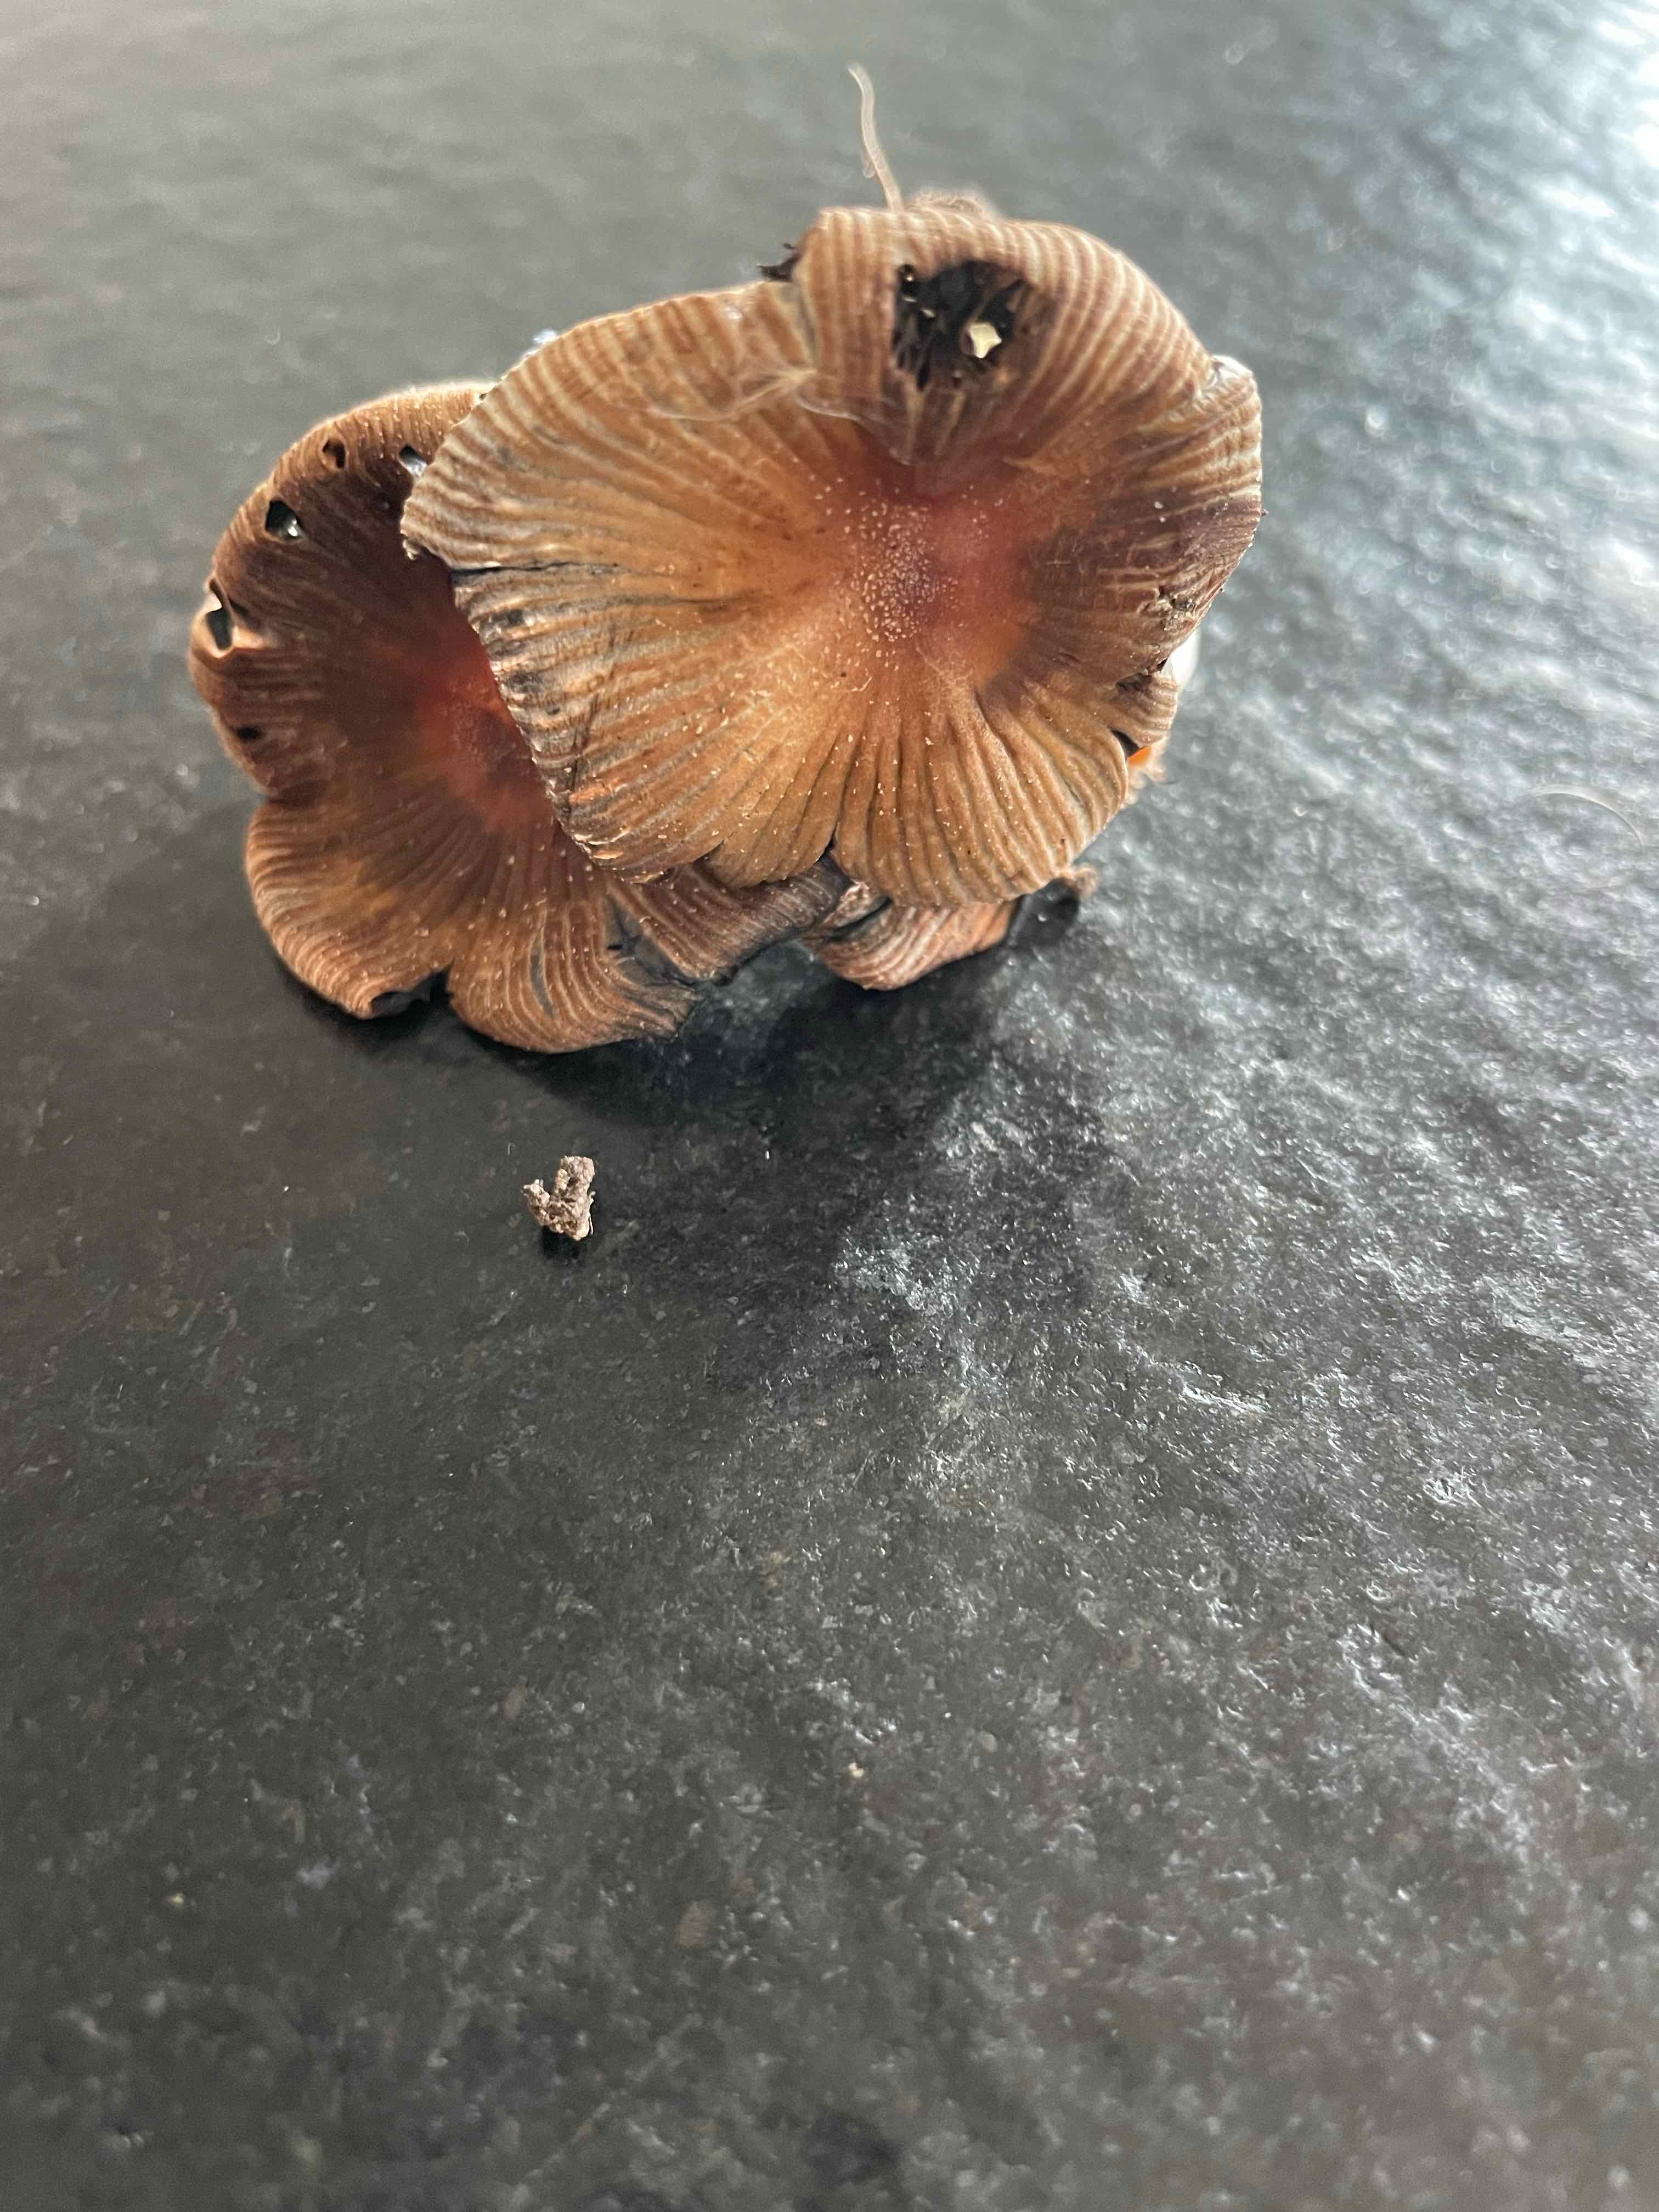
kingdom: Fungi
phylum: Basidiomycota
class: Agaricomycetes
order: Agaricales
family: Psathyrellaceae
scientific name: Psathyrellaceae
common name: mørkhatfamilien
